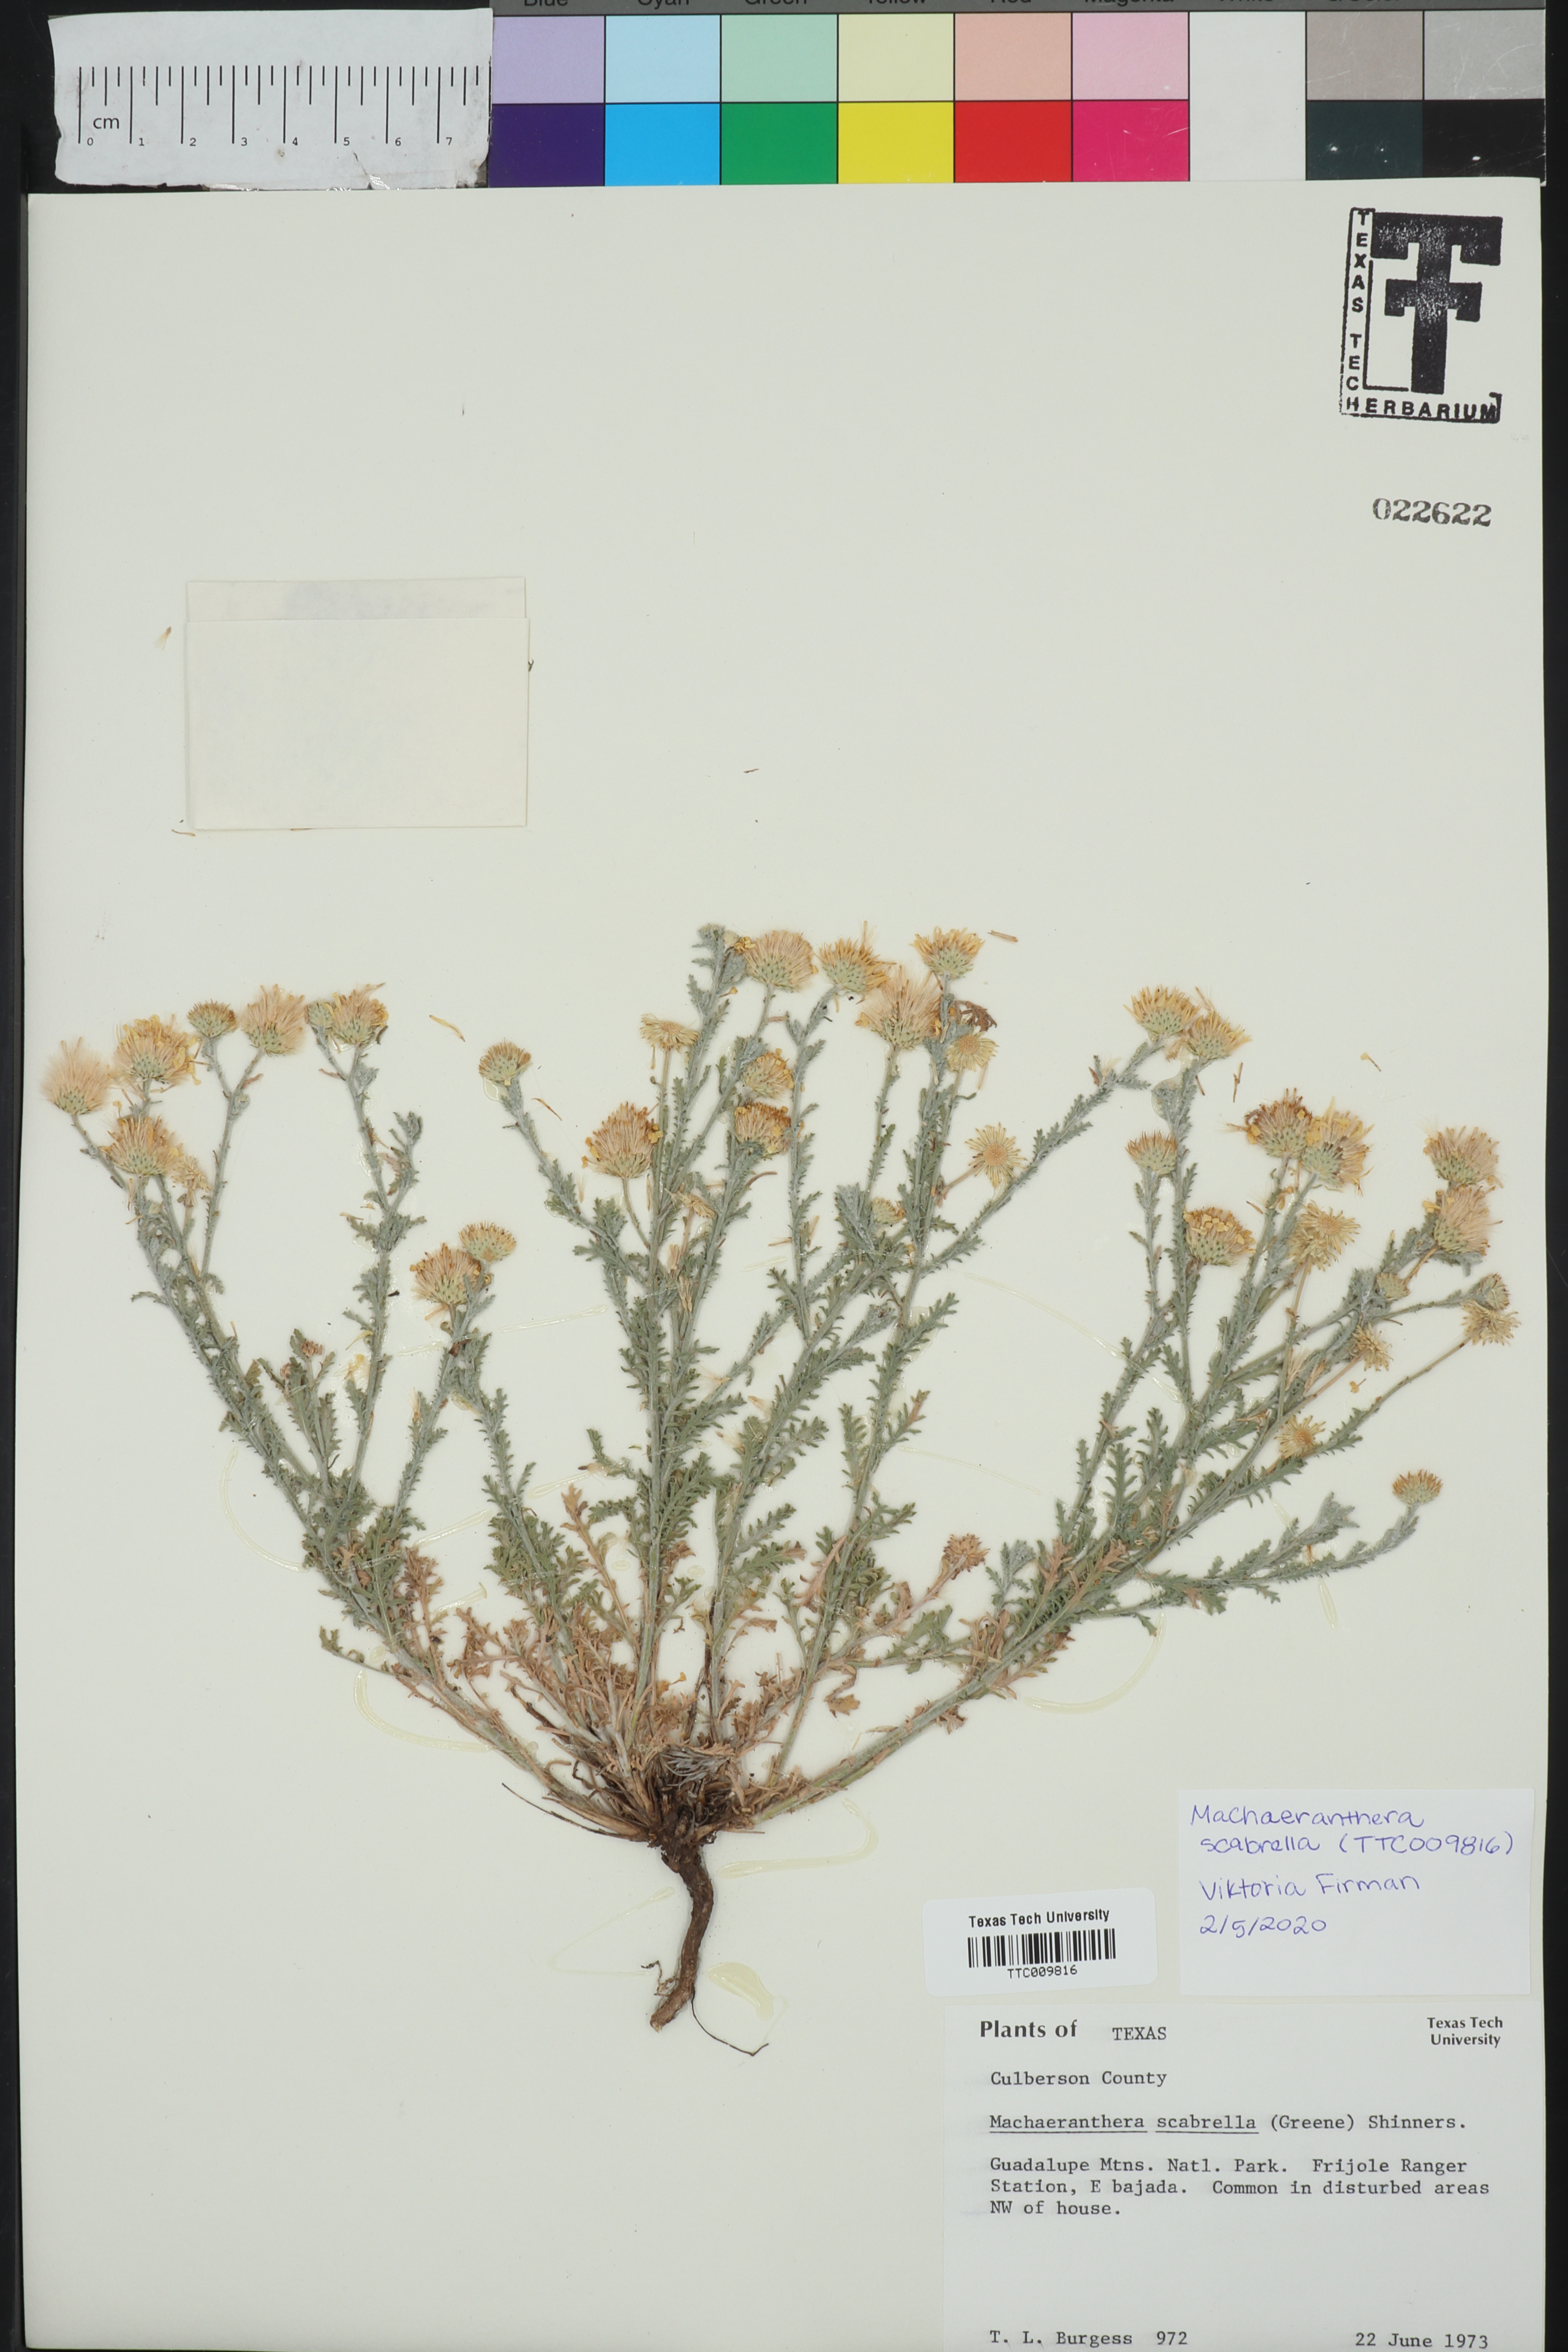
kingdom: Plantae
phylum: Tracheophyta
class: Magnoliopsida
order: Asterales
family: Asteraceae
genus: Xanthisma
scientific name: Xanthisma scabrellum
